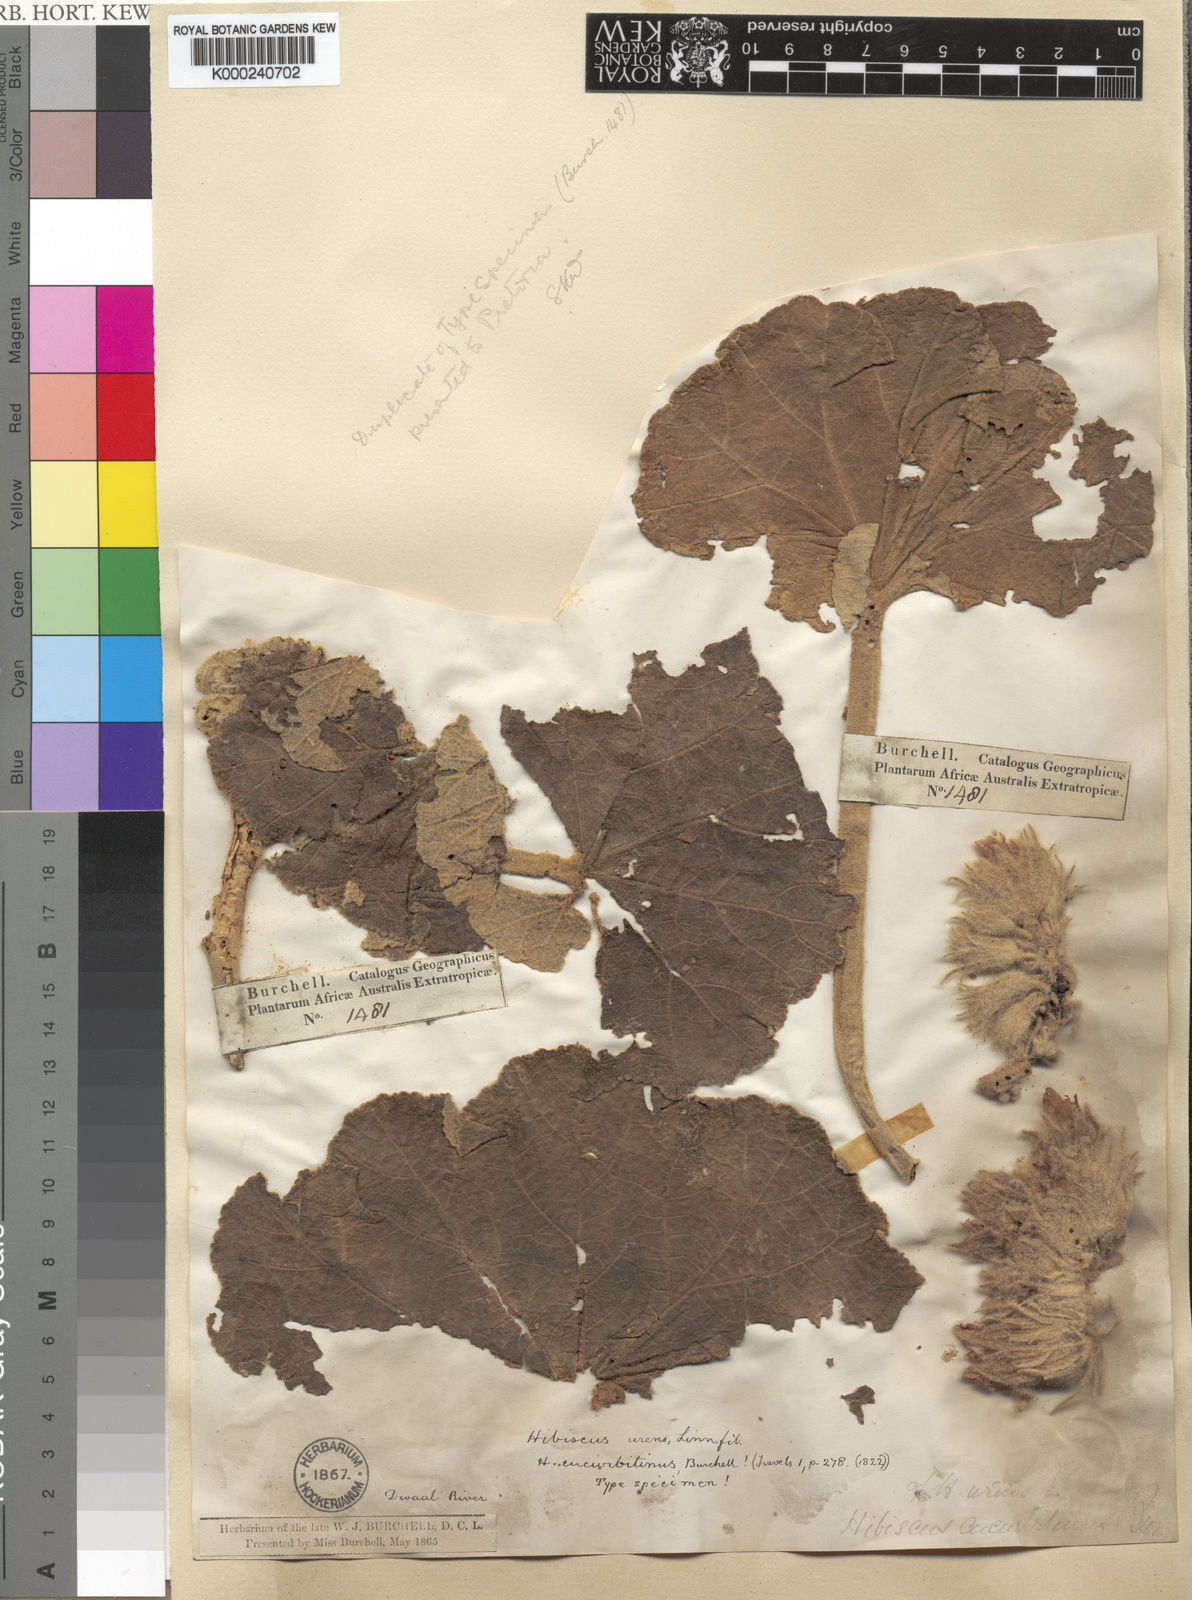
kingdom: Plantae
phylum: Tracheophyta
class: Magnoliopsida
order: Malvales
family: Malvaceae
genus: Radyera
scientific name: Radyera urens
